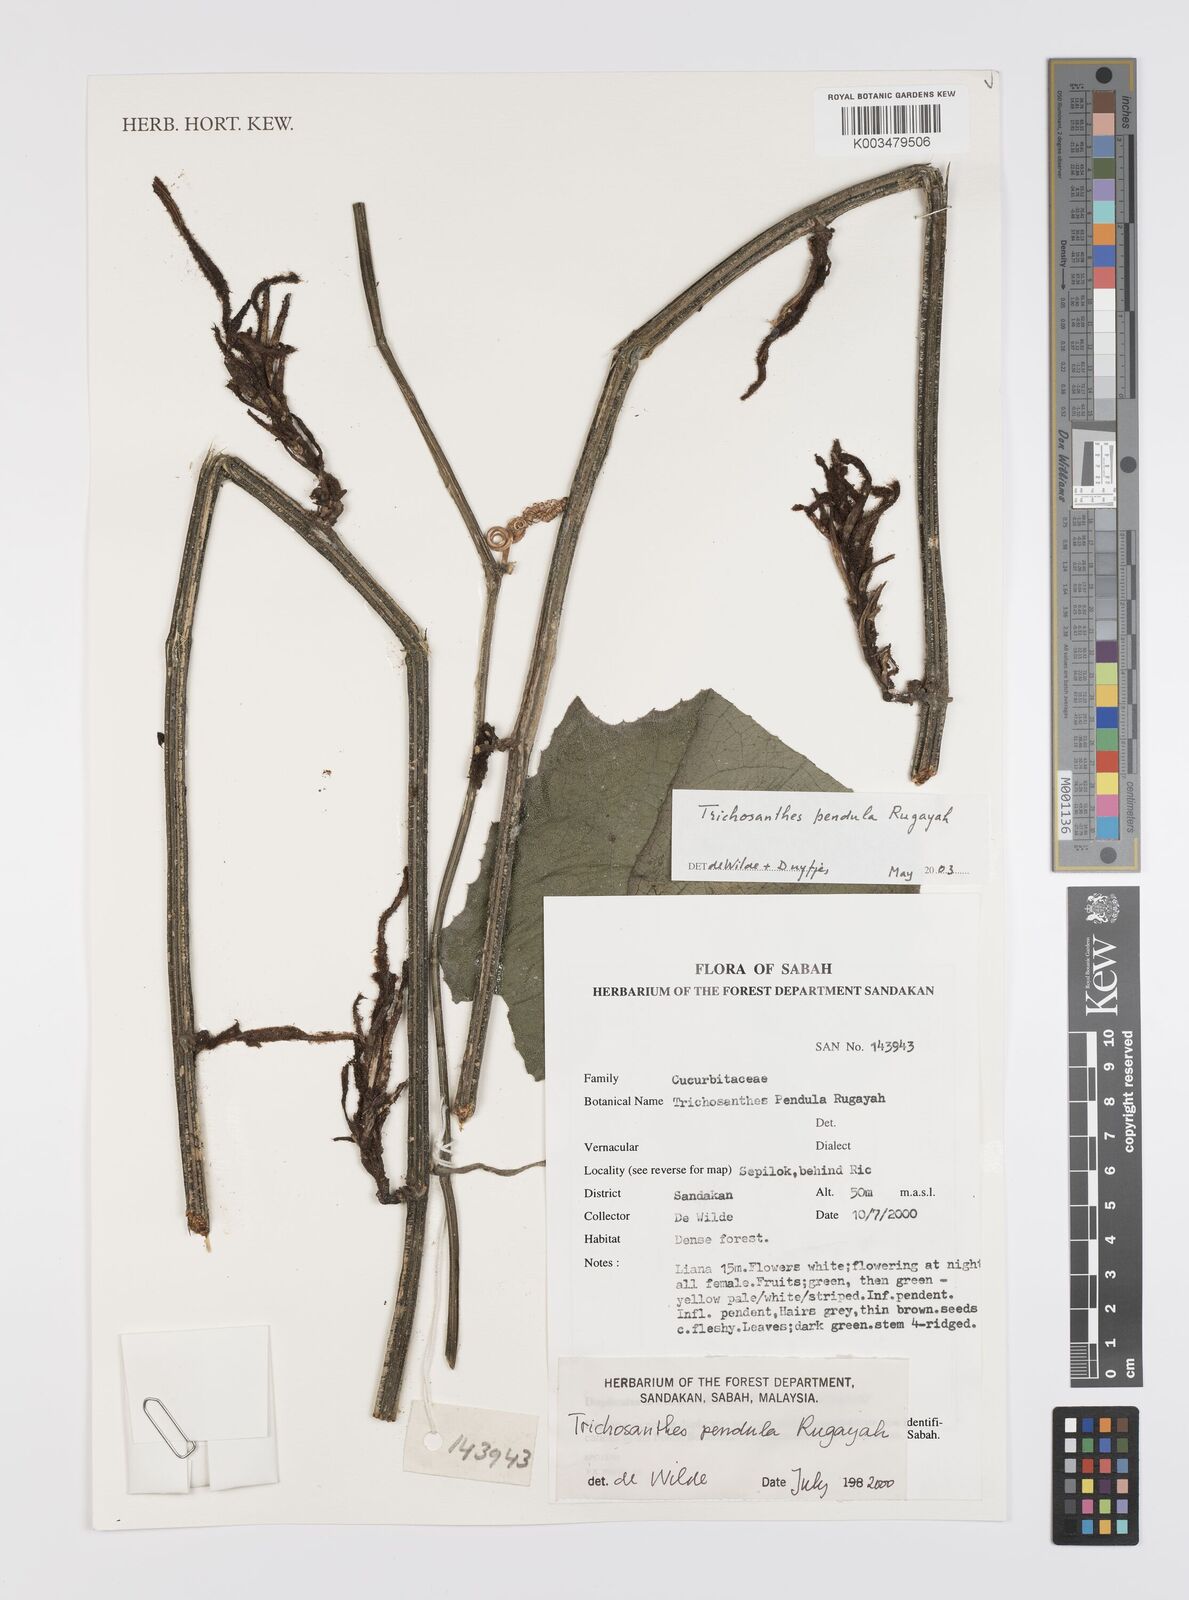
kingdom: Plantae
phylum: Tracheophyta
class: Magnoliopsida
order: Cucurbitales
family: Cucurbitaceae
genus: Trichosanthes
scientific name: Trichosanthes pendula
